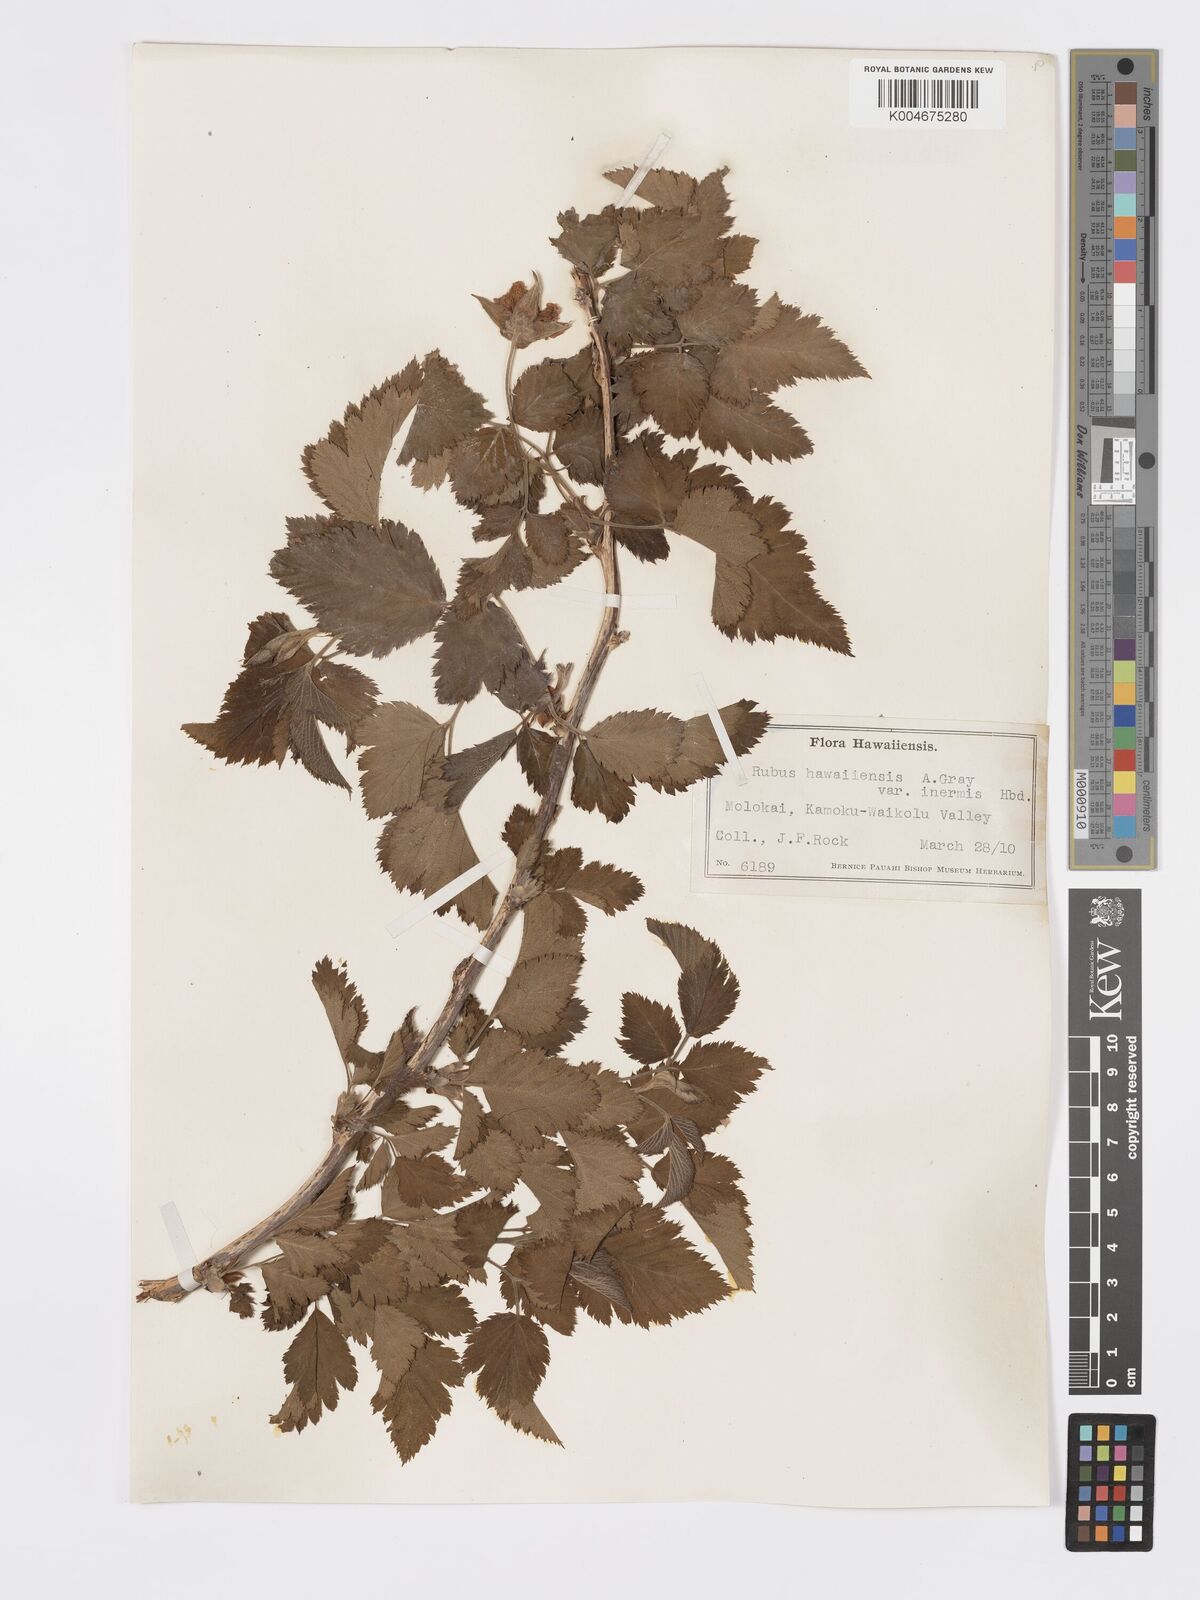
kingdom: Plantae
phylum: Tracheophyta
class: Magnoliopsida
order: Rosales
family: Rosaceae
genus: Rubus
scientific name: Rubus hawaiensis
